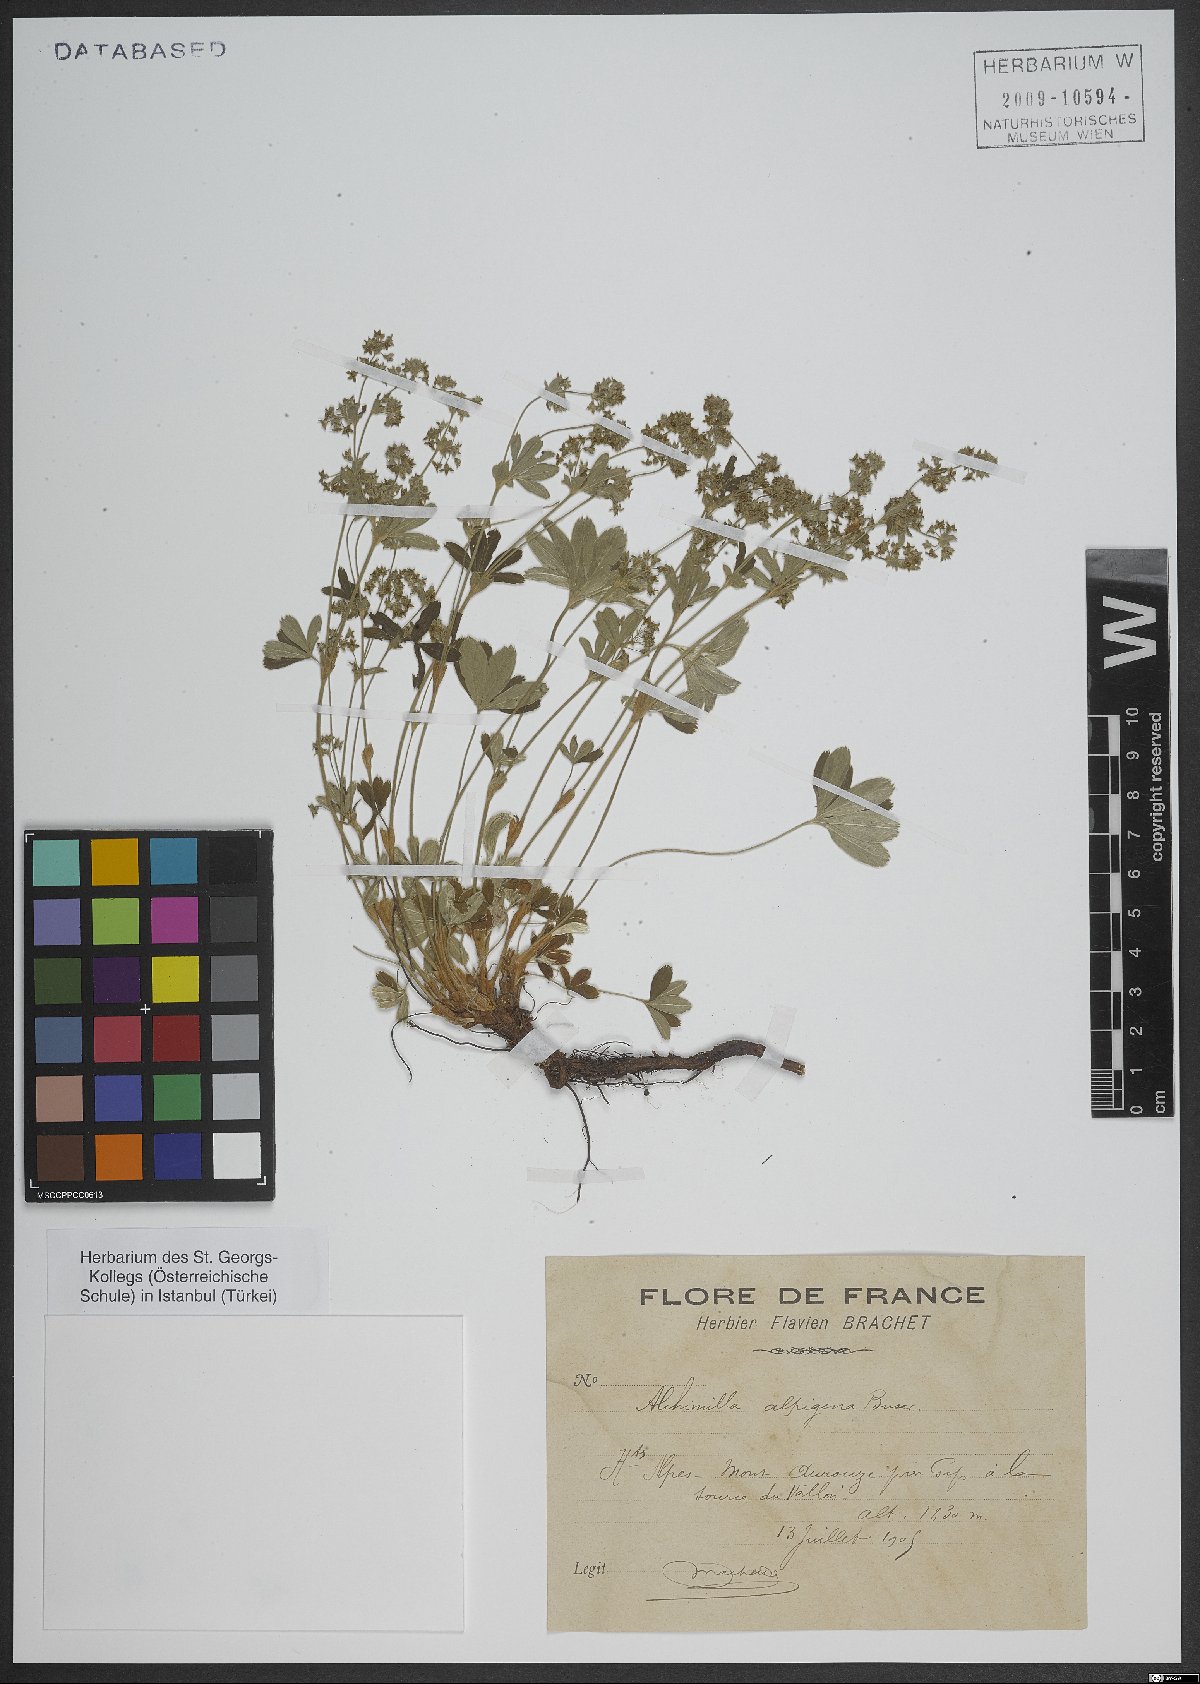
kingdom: Plantae
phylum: Tracheophyta
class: Magnoliopsida
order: Rosales
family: Rosaceae
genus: Alchemilla
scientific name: Alchemilla alpigena
